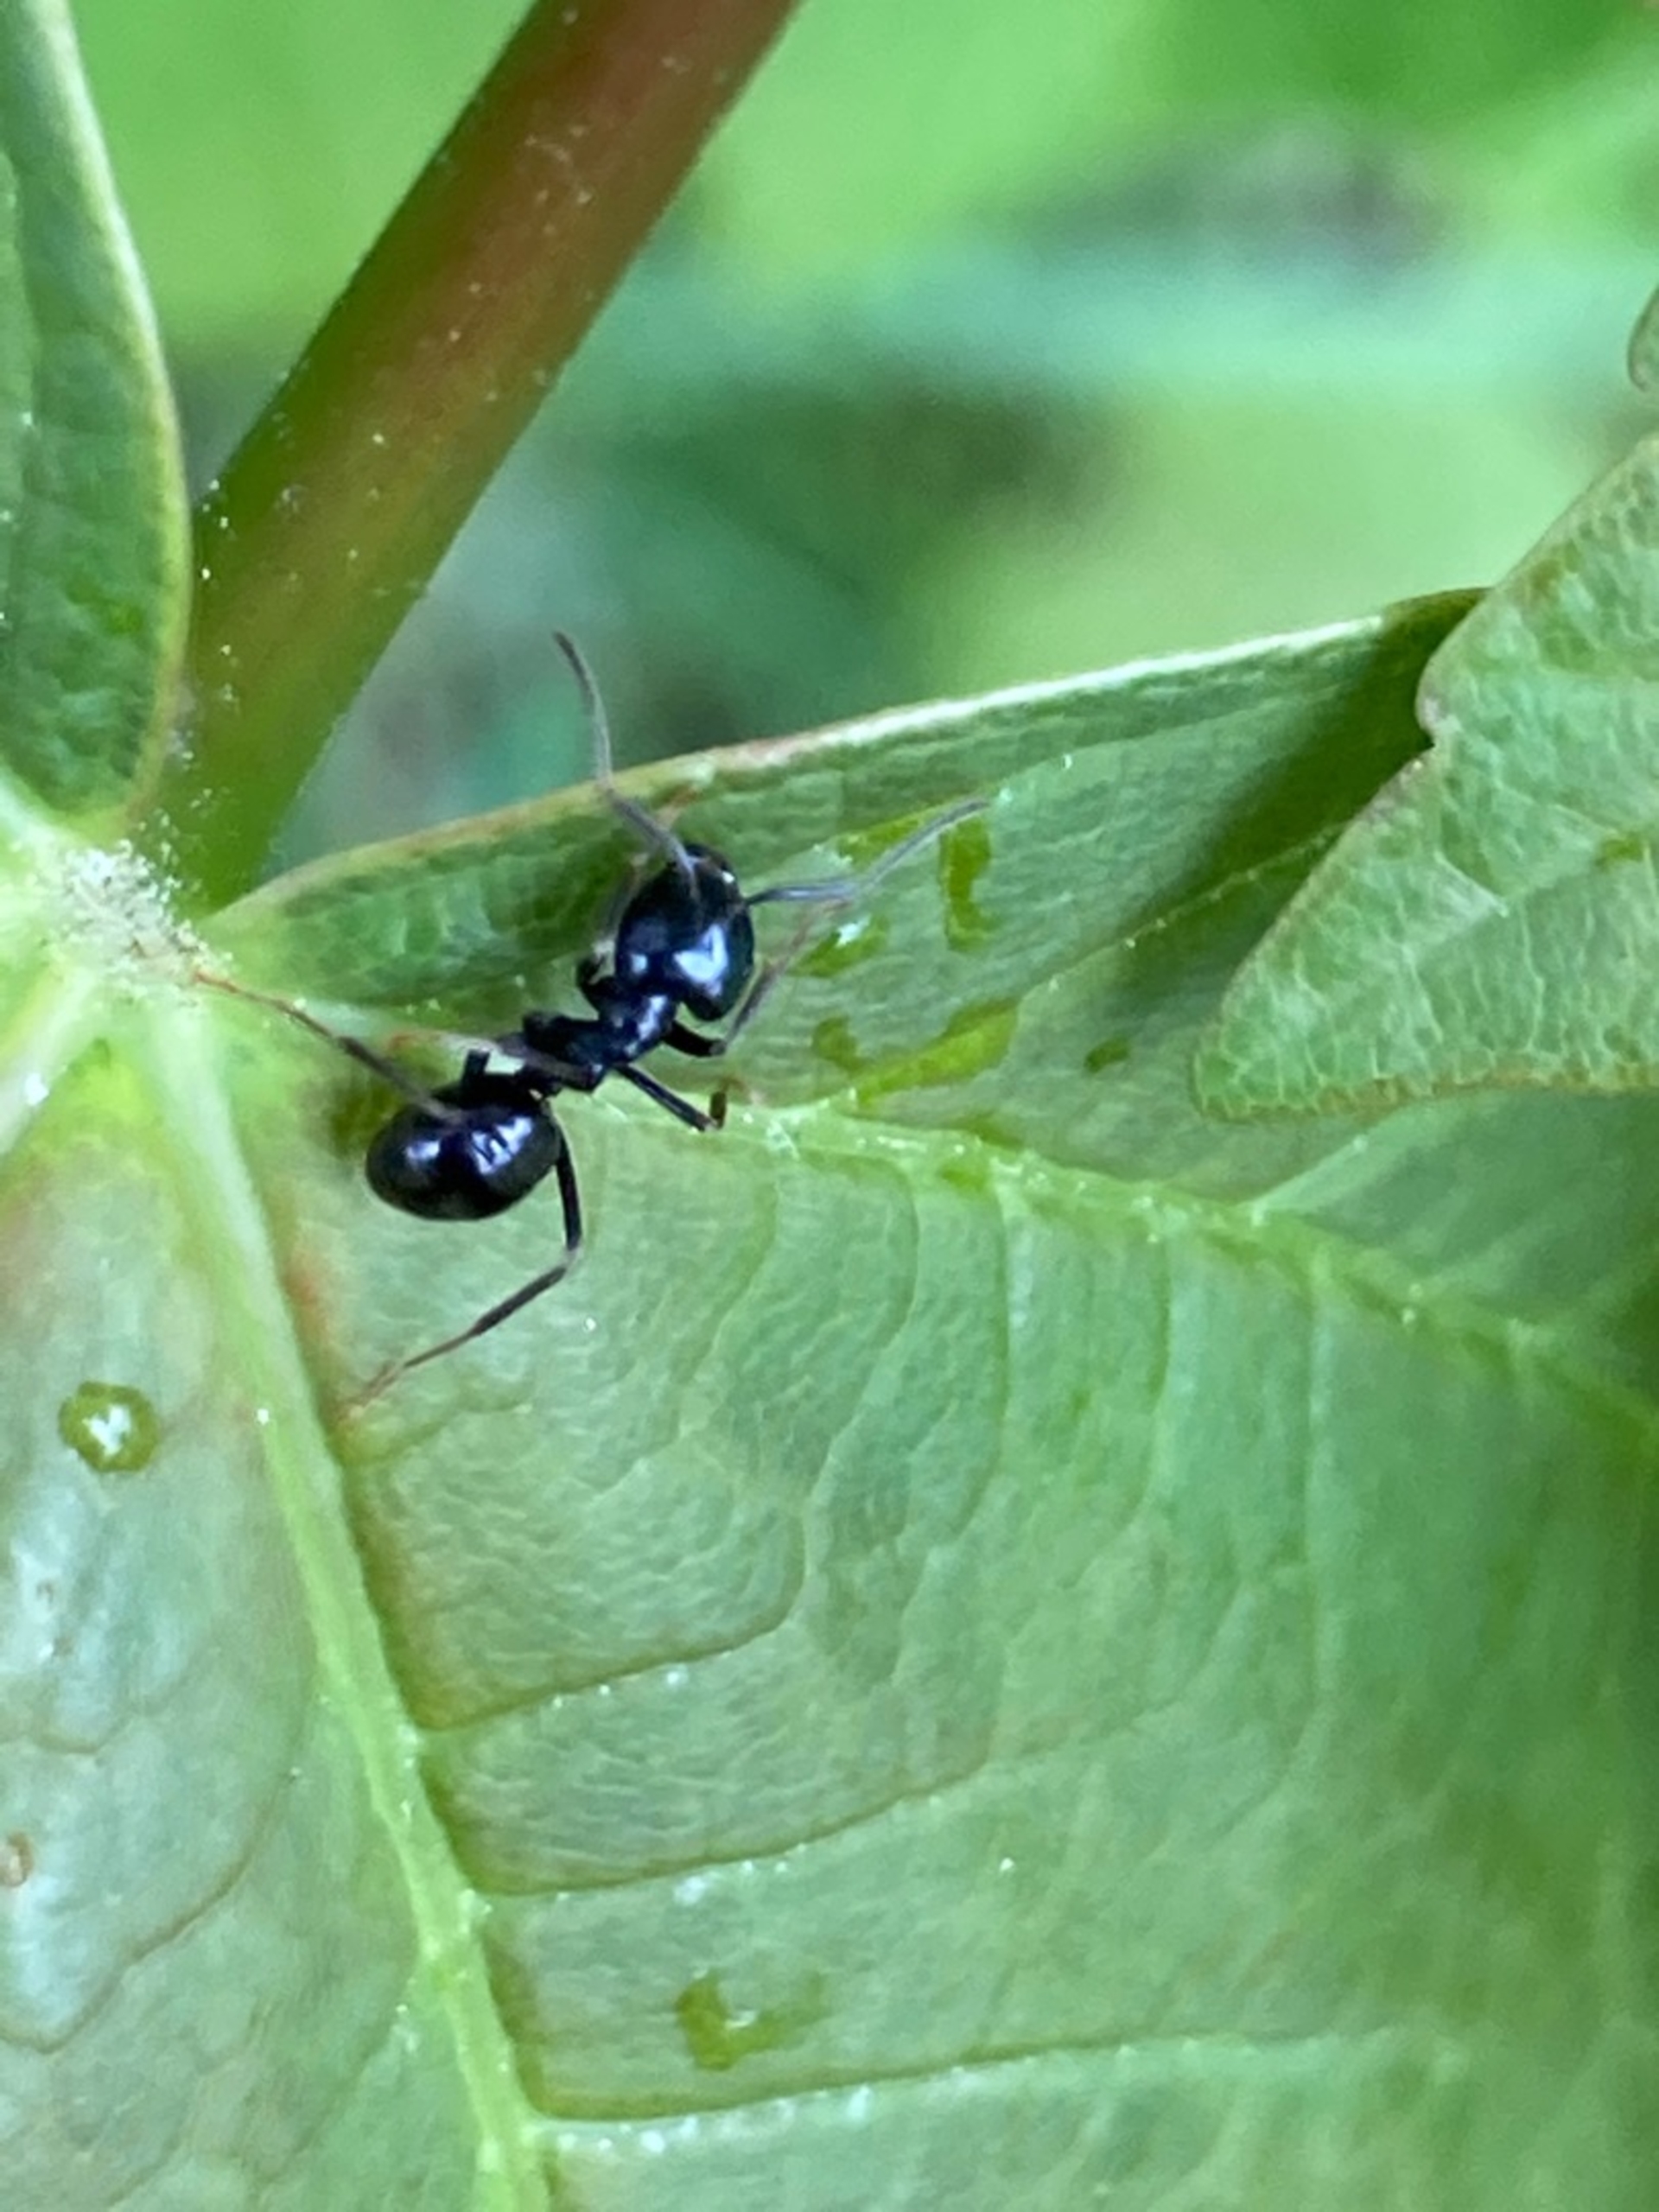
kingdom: Animalia
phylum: Arthropoda
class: Insecta
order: Hymenoptera
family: Formicidae
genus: Lasius
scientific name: Lasius fuliginosus
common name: Orangemyre
